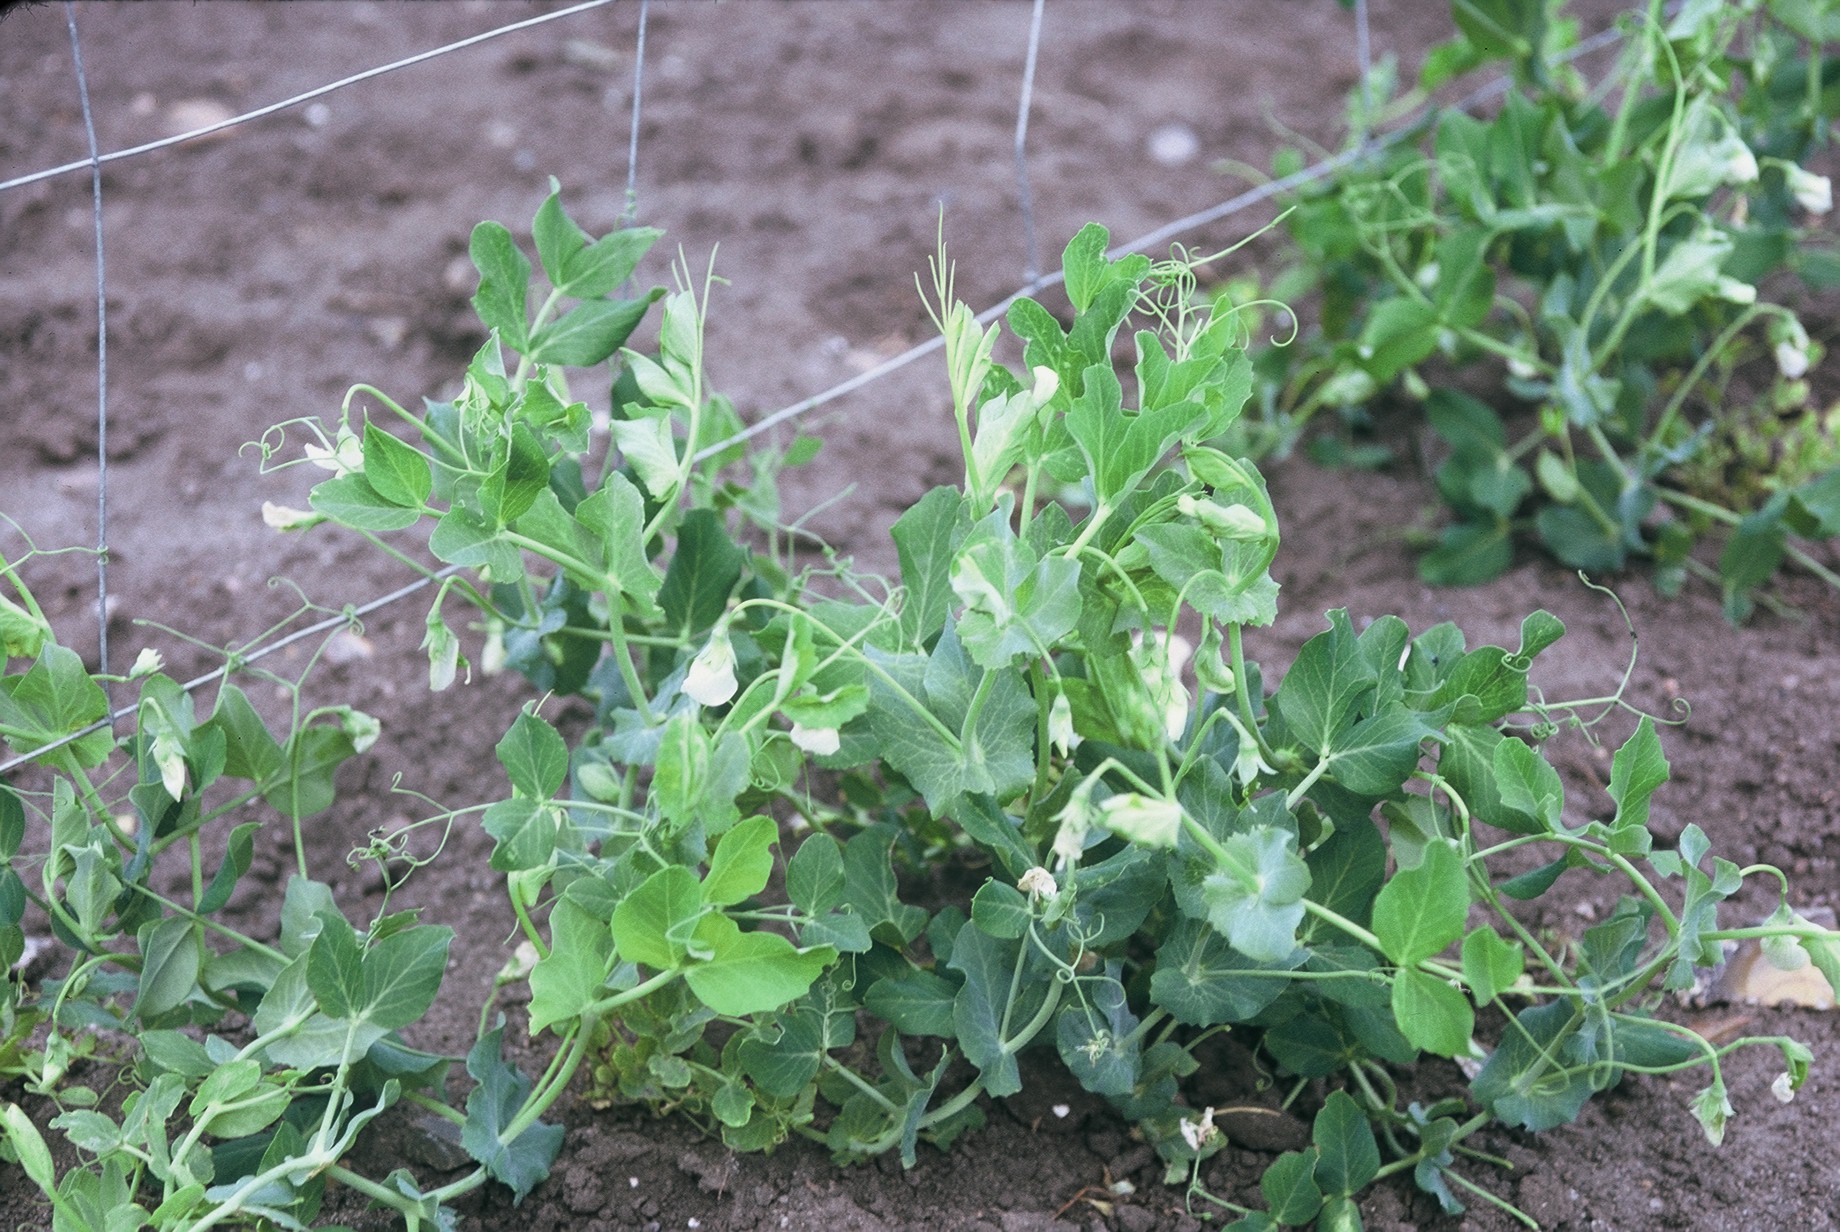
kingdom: Plantae
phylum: Tracheophyta
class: Magnoliopsida
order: Fabales
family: Fabaceae
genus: Lathyrus
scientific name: Lathyrus oleraceus
